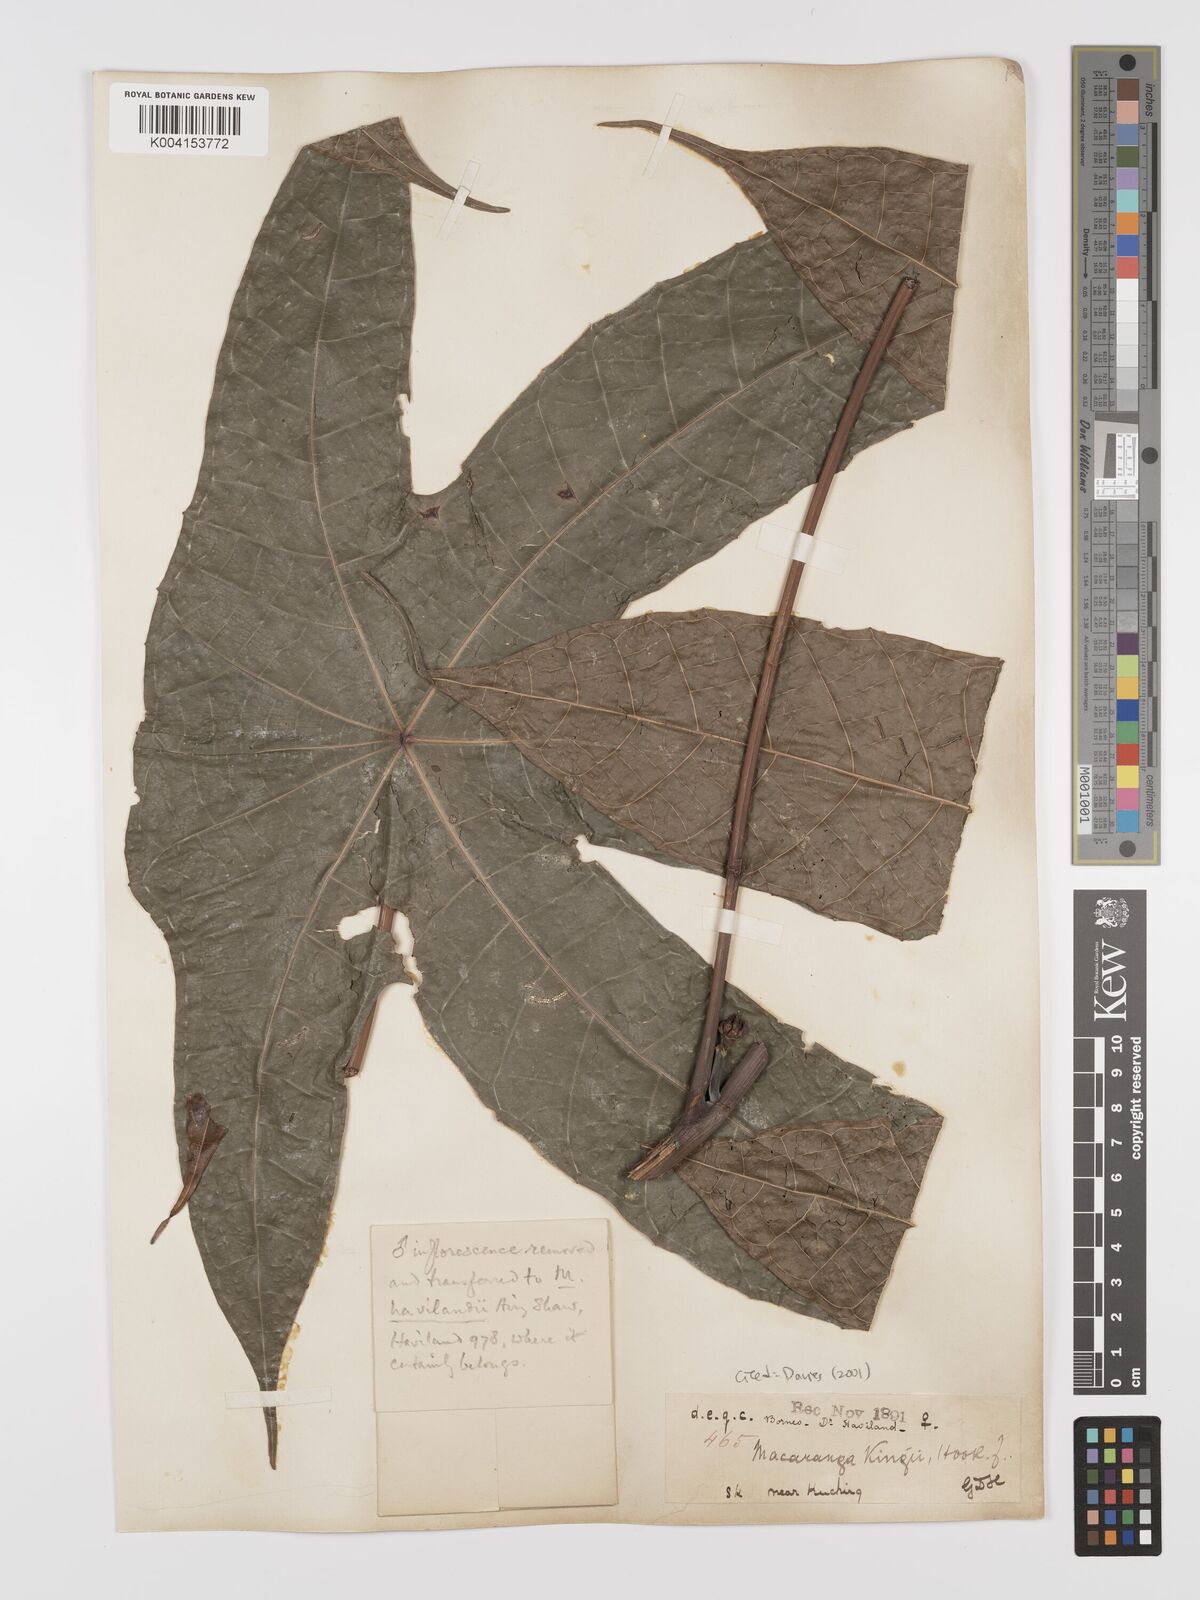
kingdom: Plantae
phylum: Tracheophyta
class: Magnoliopsida
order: Malpighiales
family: Euphorbiaceae
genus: Macaranga
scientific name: Macaranga kingii
